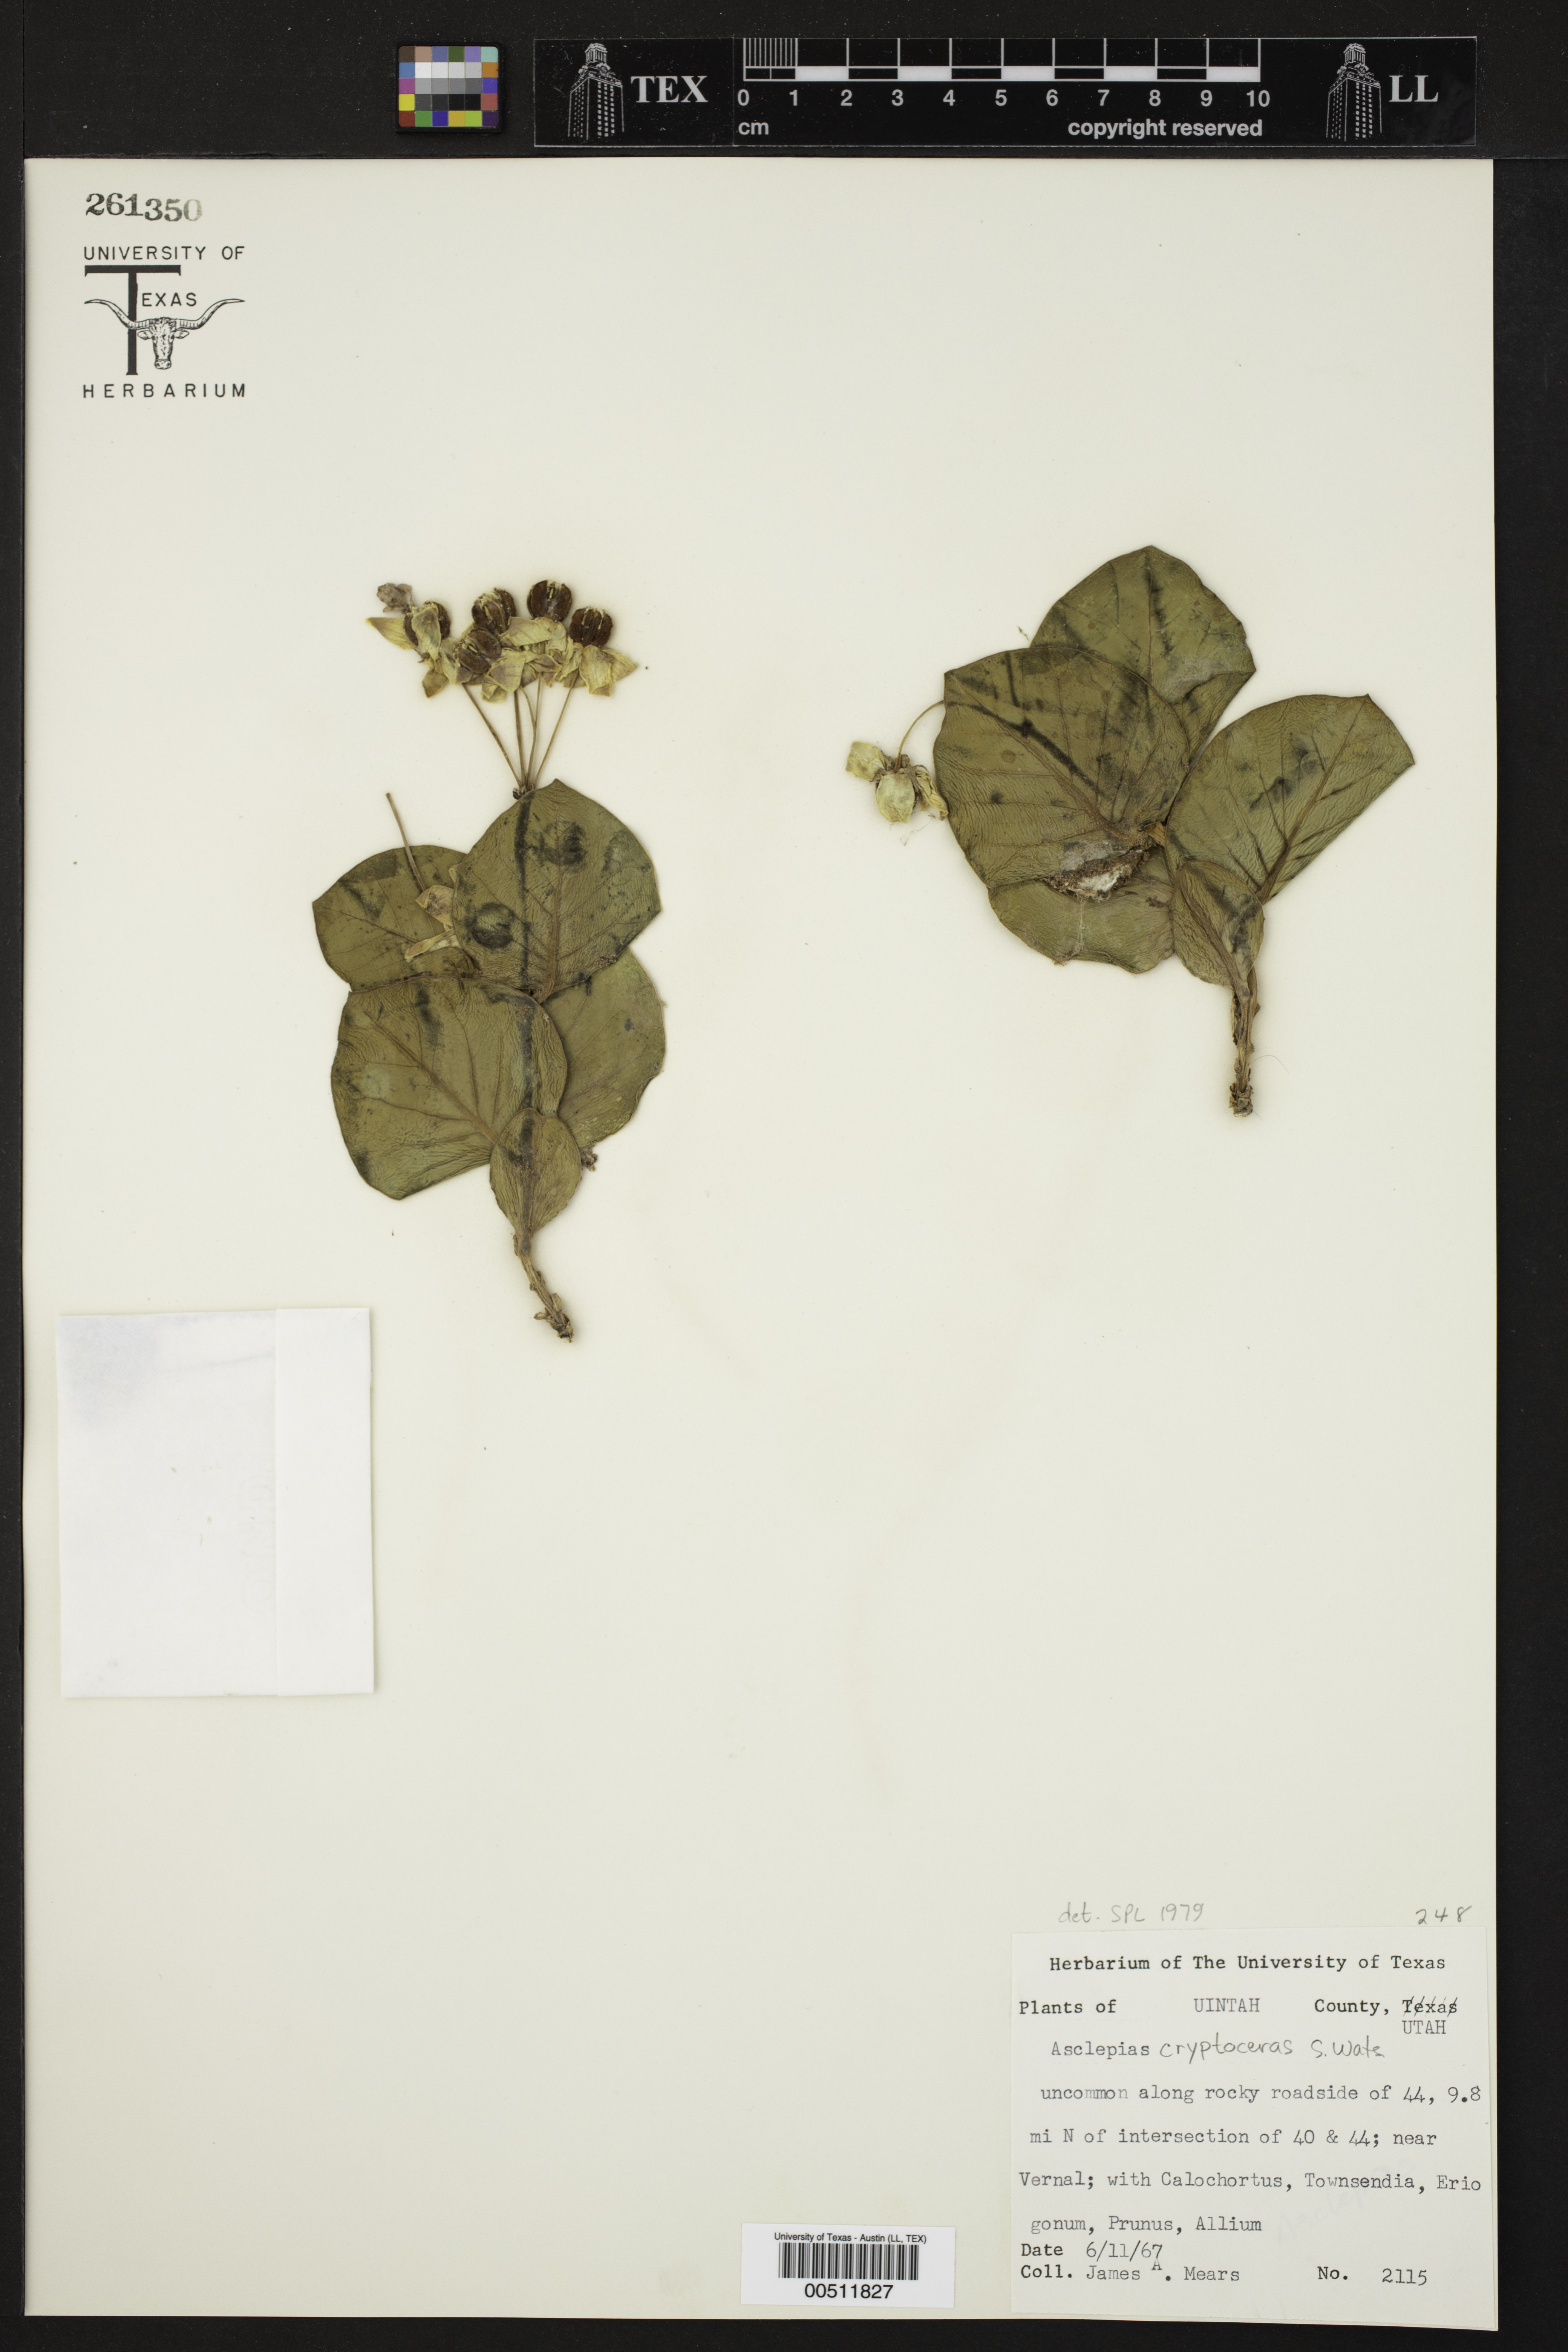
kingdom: Plantae
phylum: Tracheophyta
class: Magnoliopsida
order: Gentianales
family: Apocynaceae
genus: Asclepias
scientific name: Asclepias cryptoceras
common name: Humboldt mountains milkweed
